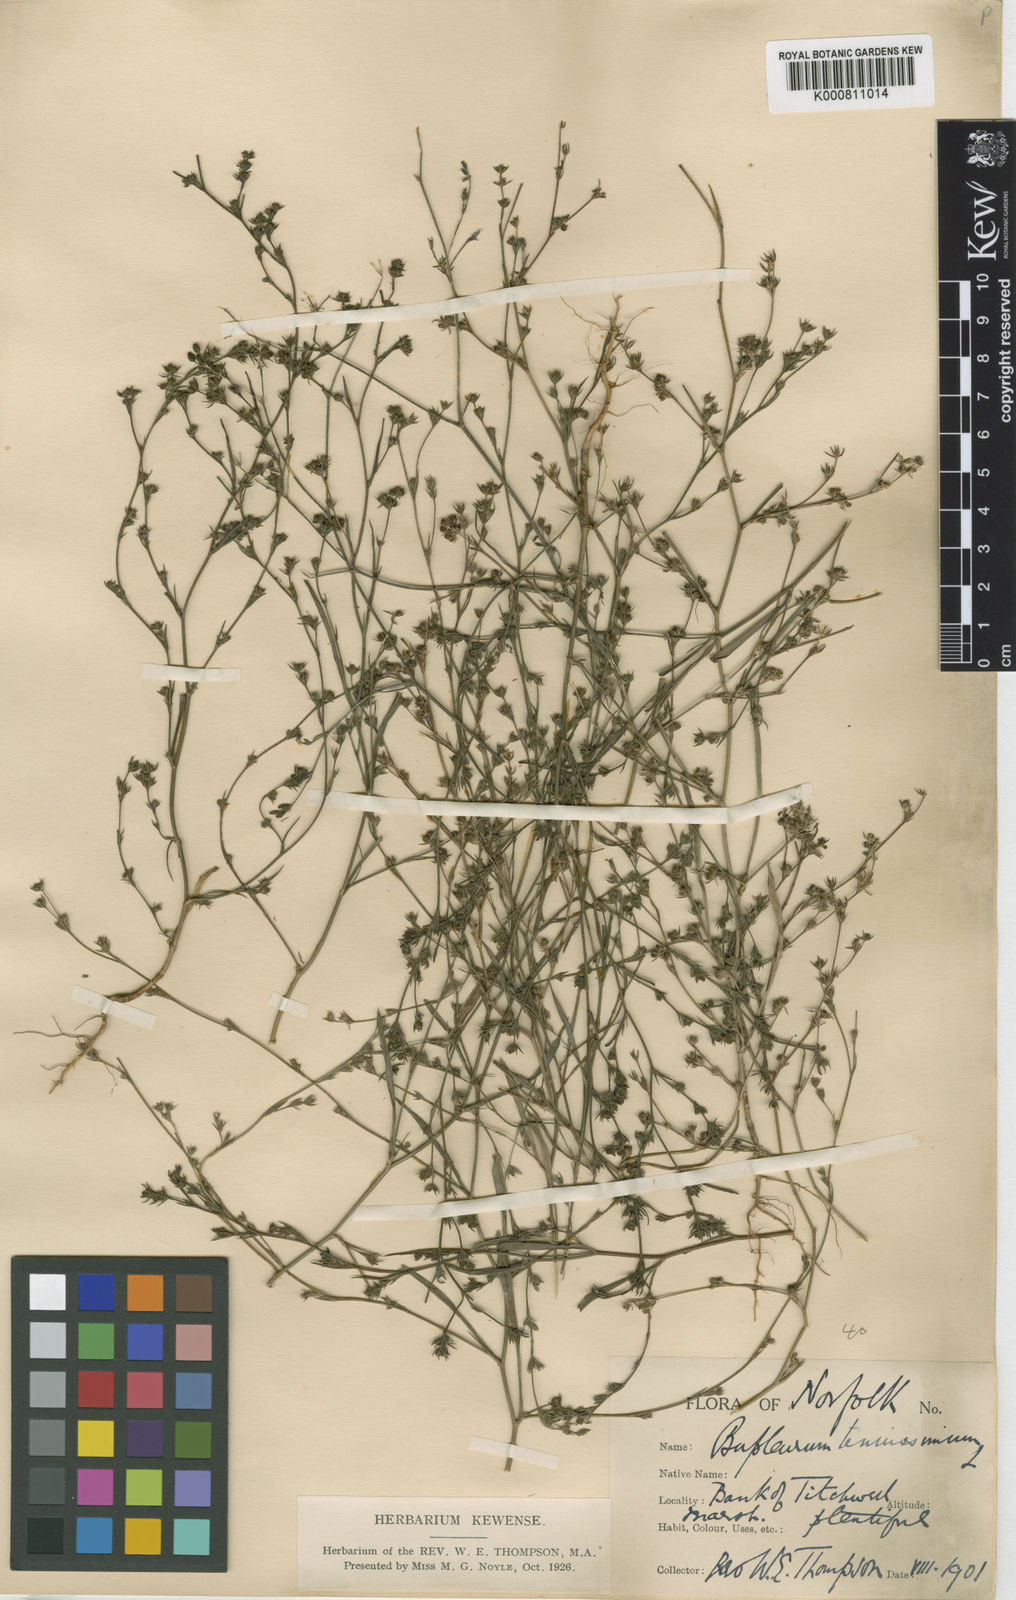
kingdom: Plantae
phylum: Tracheophyta
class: Magnoliopsida
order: Apiales
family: Apiaceae
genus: Bupleurum
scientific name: Bupleurum tenuissimum
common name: Slender hare's-ear
